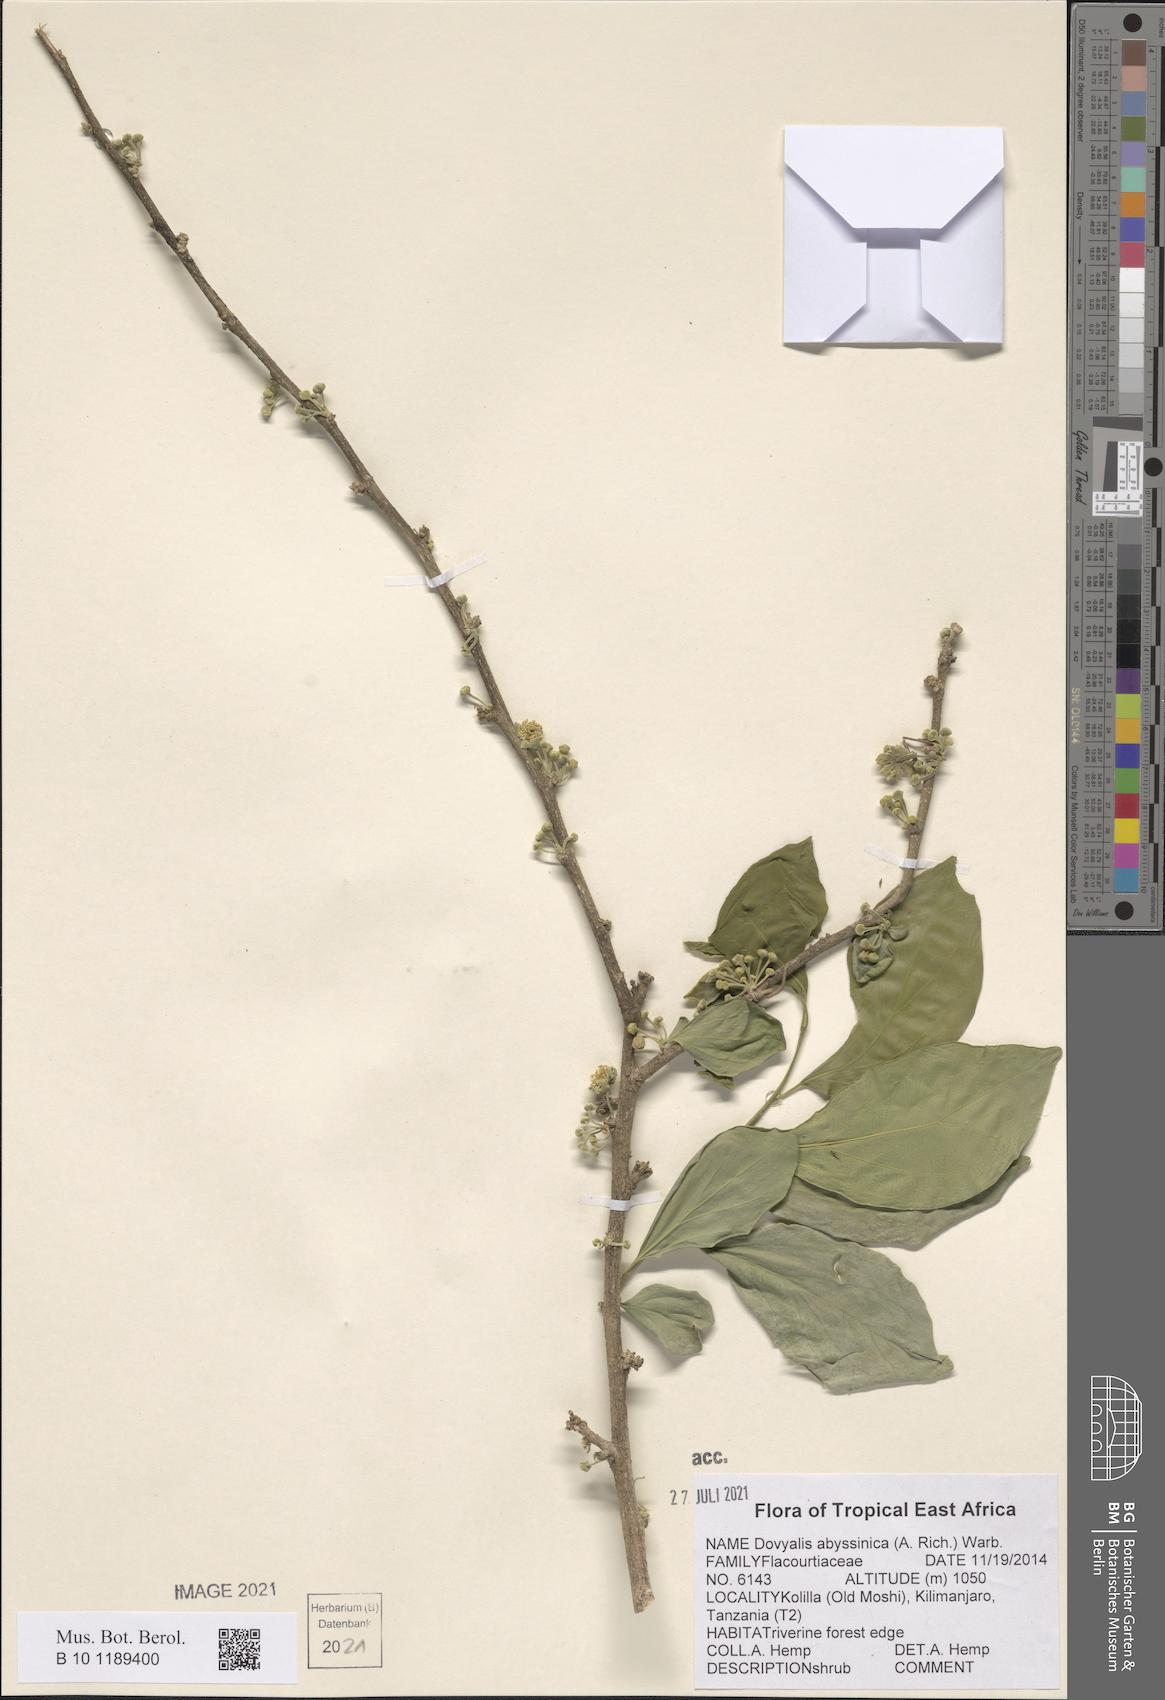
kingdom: Plantae
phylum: Tracheophyta
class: Magnoliopsida
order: Malpighiales
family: Salicaceae
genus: Dovyalis
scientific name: Dovyalis abyssinica
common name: Abyssinian-gooseberry
